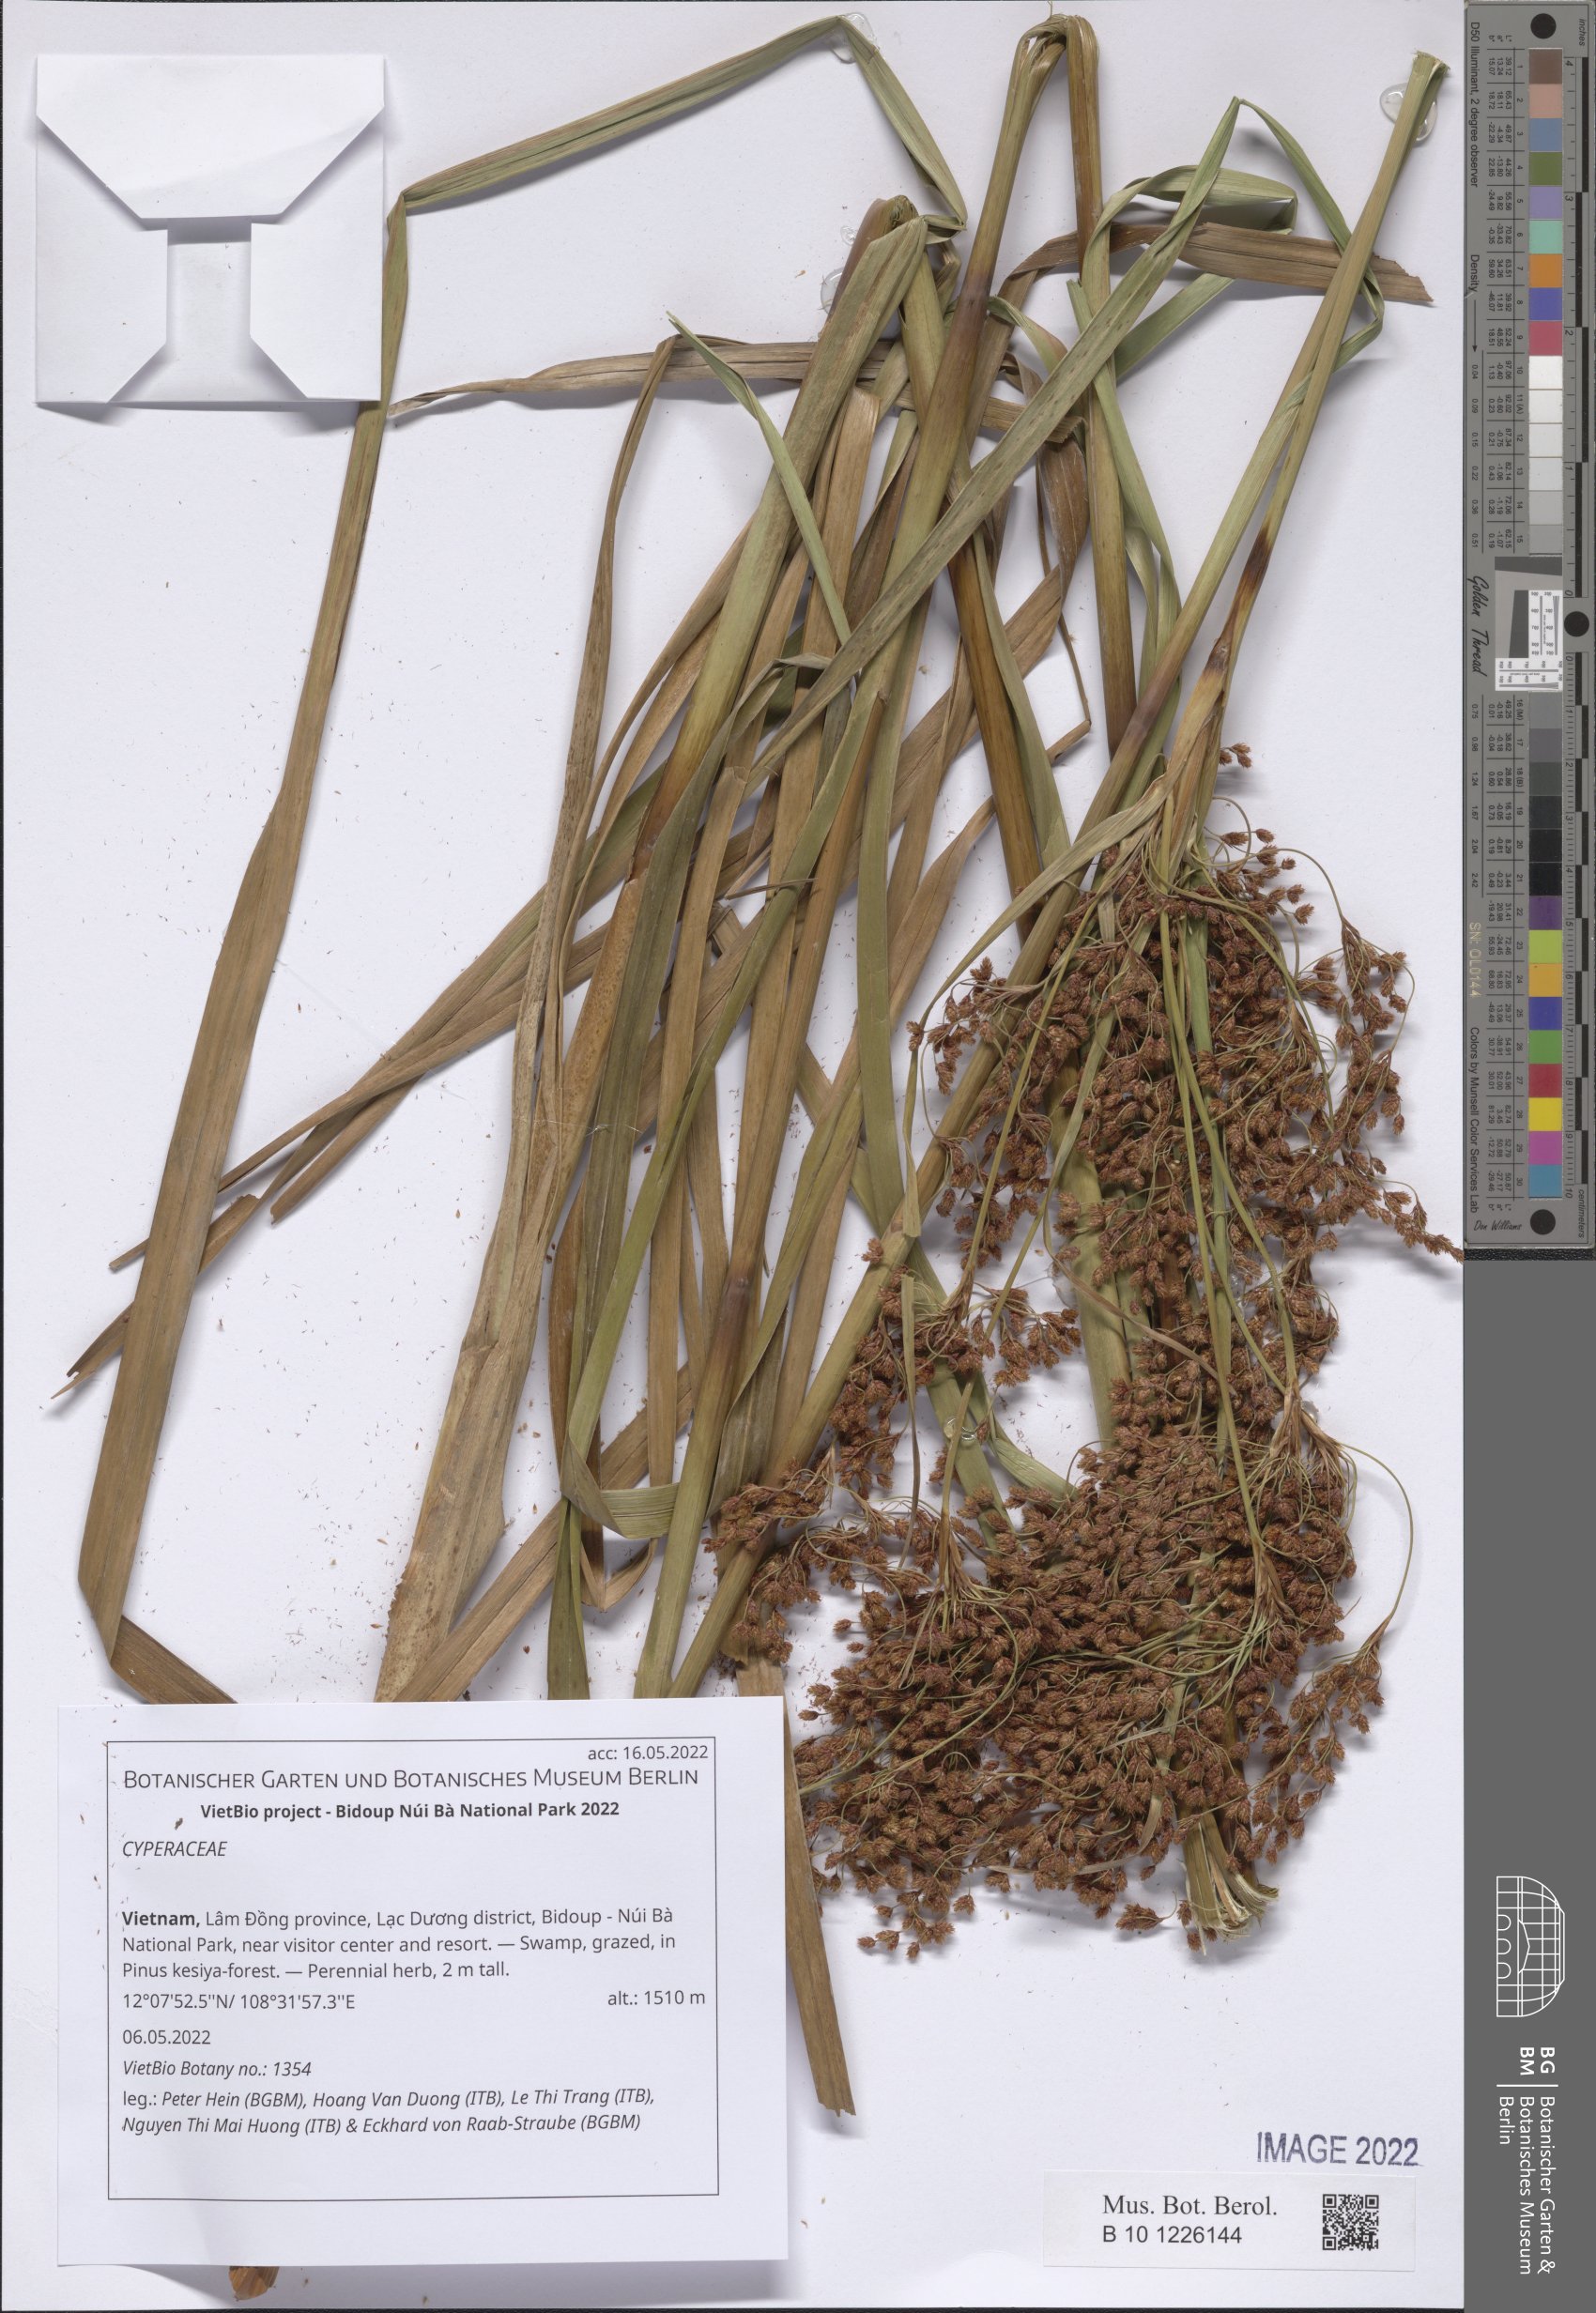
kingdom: Plantae
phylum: Tracheophyta
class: Liliopsida
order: Poales
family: Cyperaceae
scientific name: Cyperaceae
